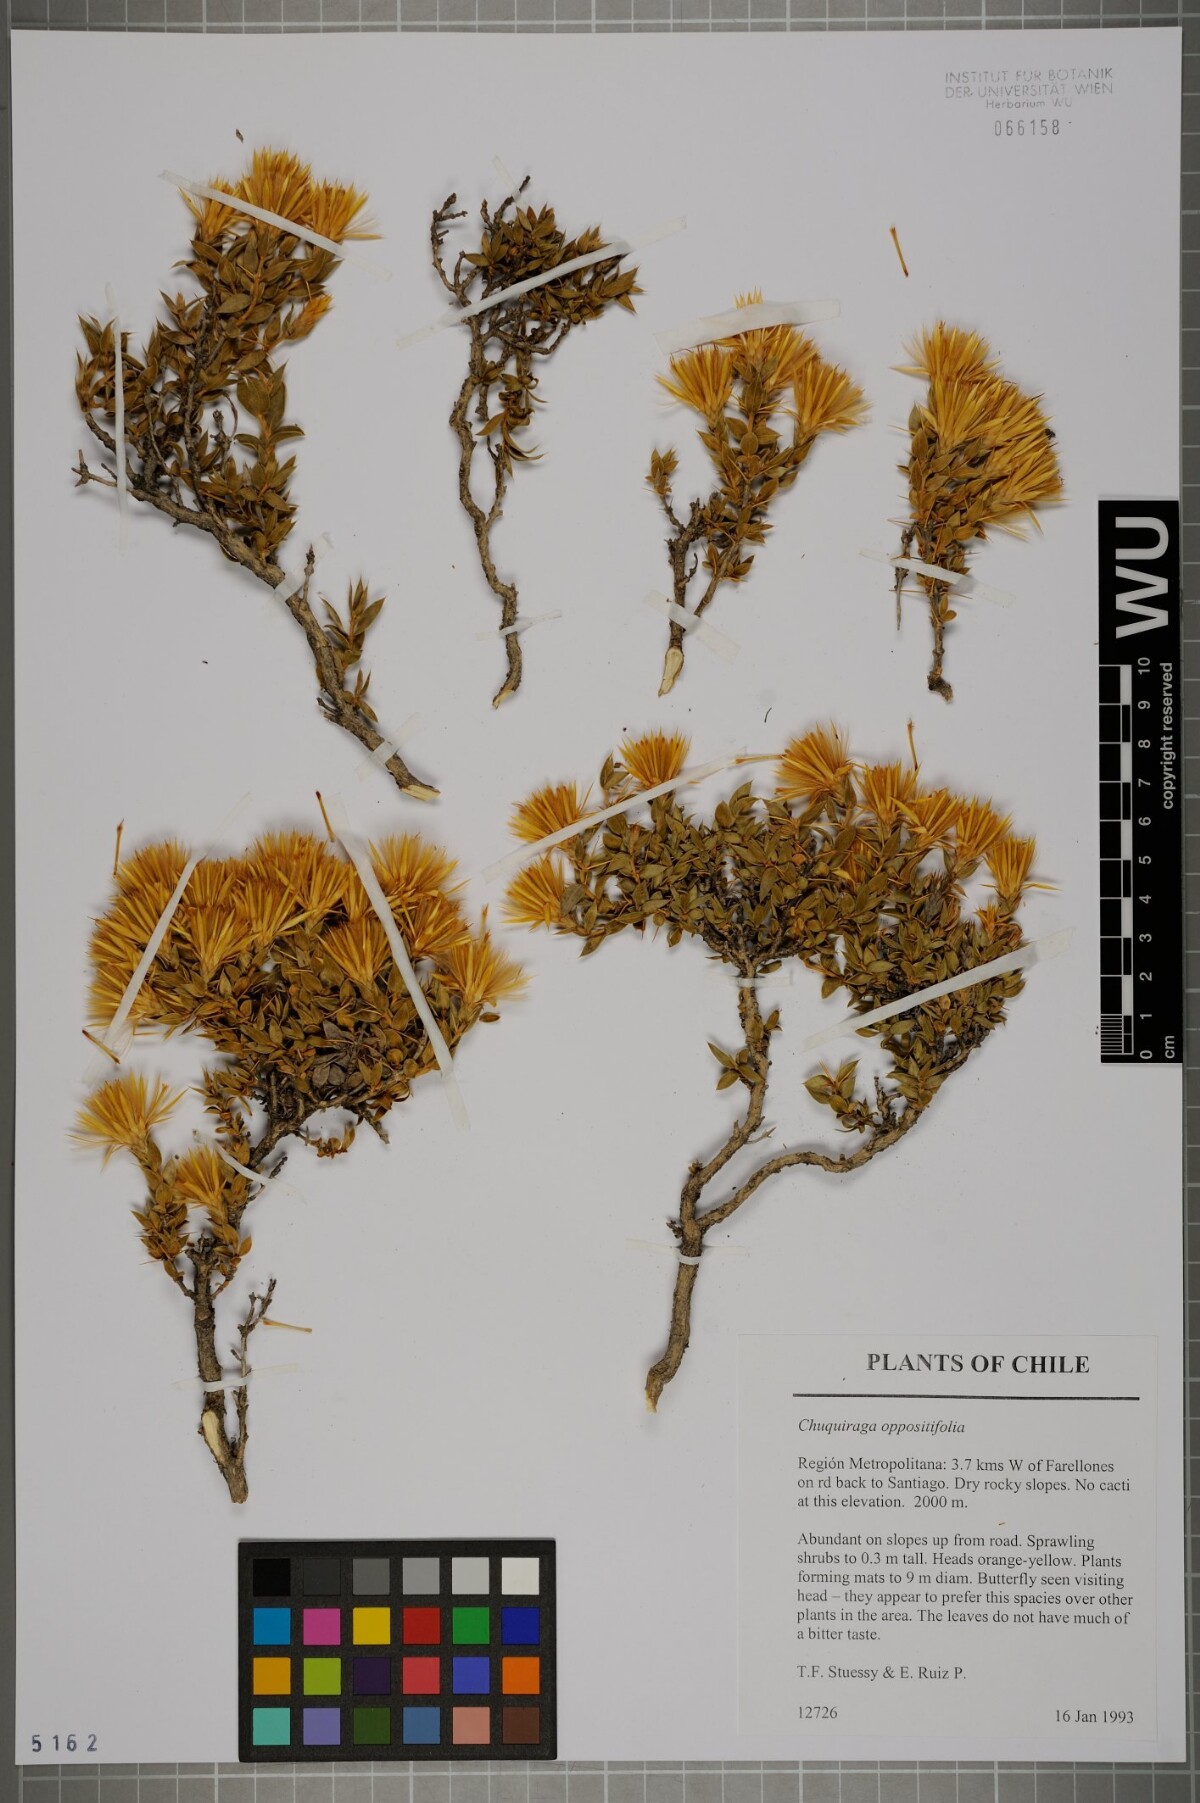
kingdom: Plantae
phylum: Tracheophyta
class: Magnoliopsida
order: Asterales
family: Asteraceae
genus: Chuquiraga
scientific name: Chuquiraga oppositifolia
